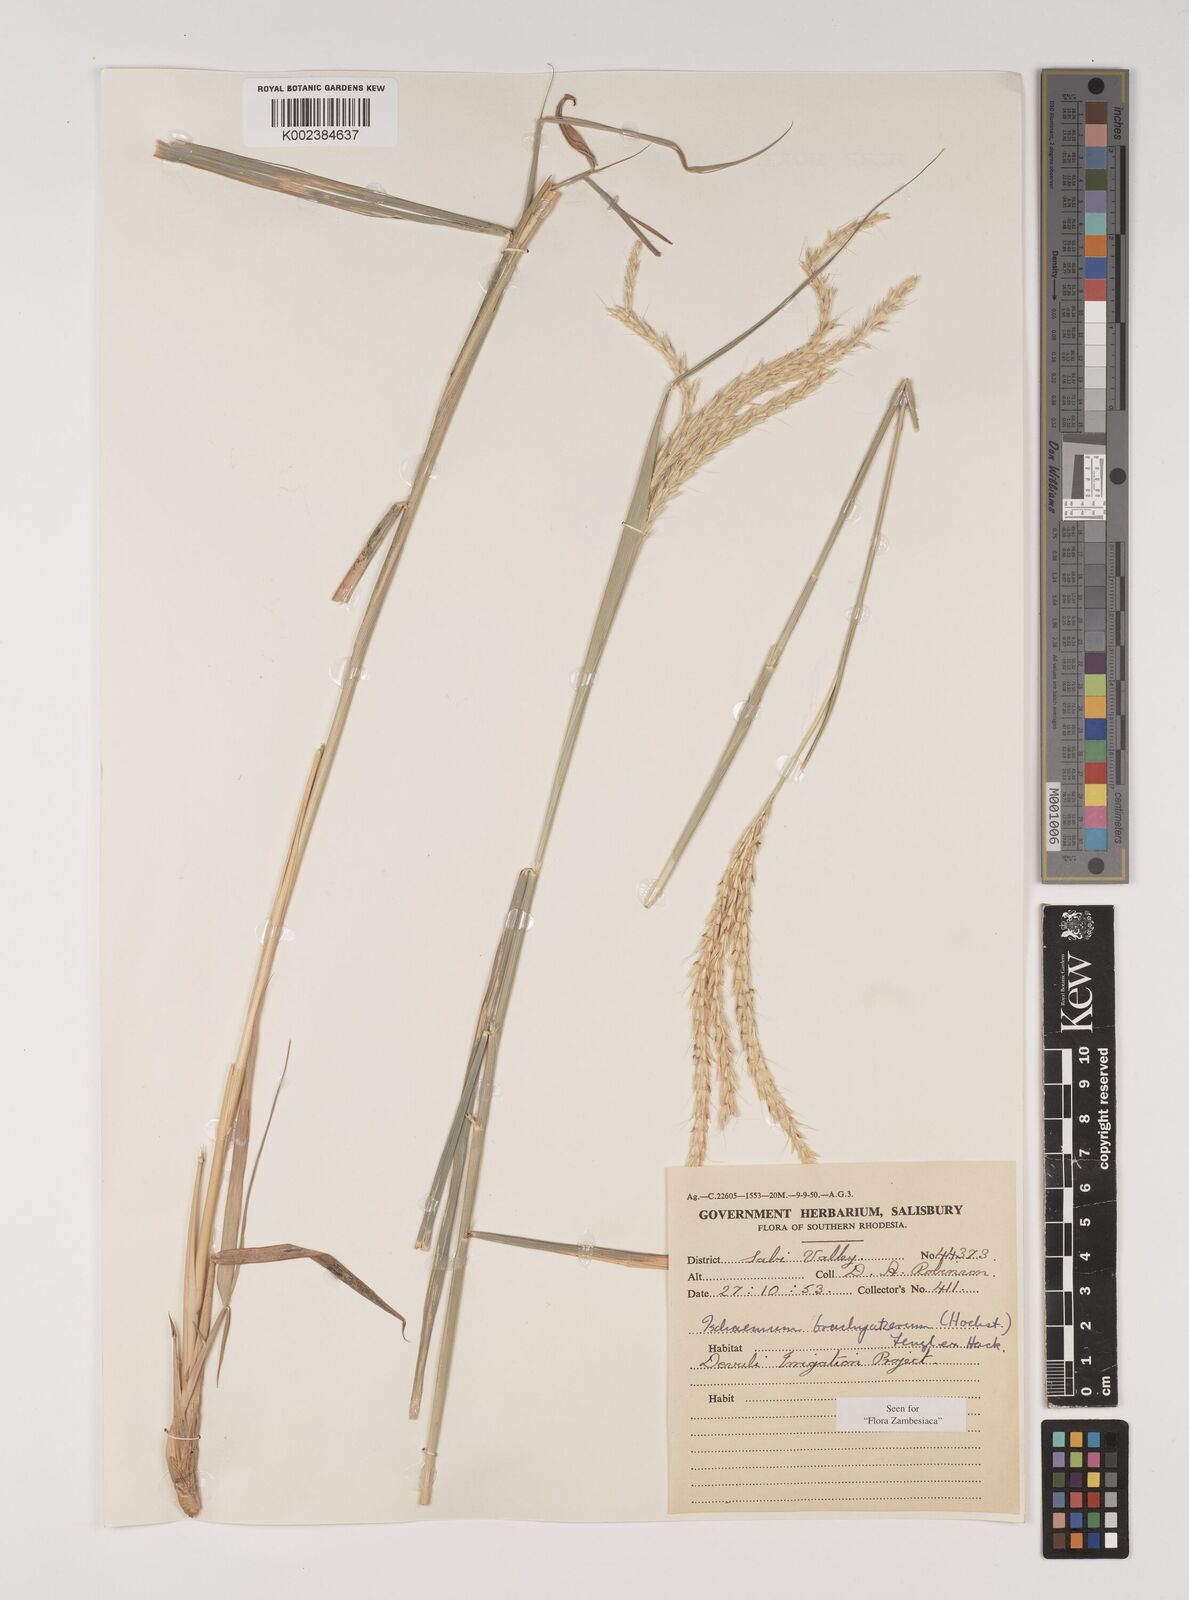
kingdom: Plantae
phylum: Tracheophyta
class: Liliopsida
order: Poales
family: Poaceae
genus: Ischaemum
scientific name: Ischaemum afrum
